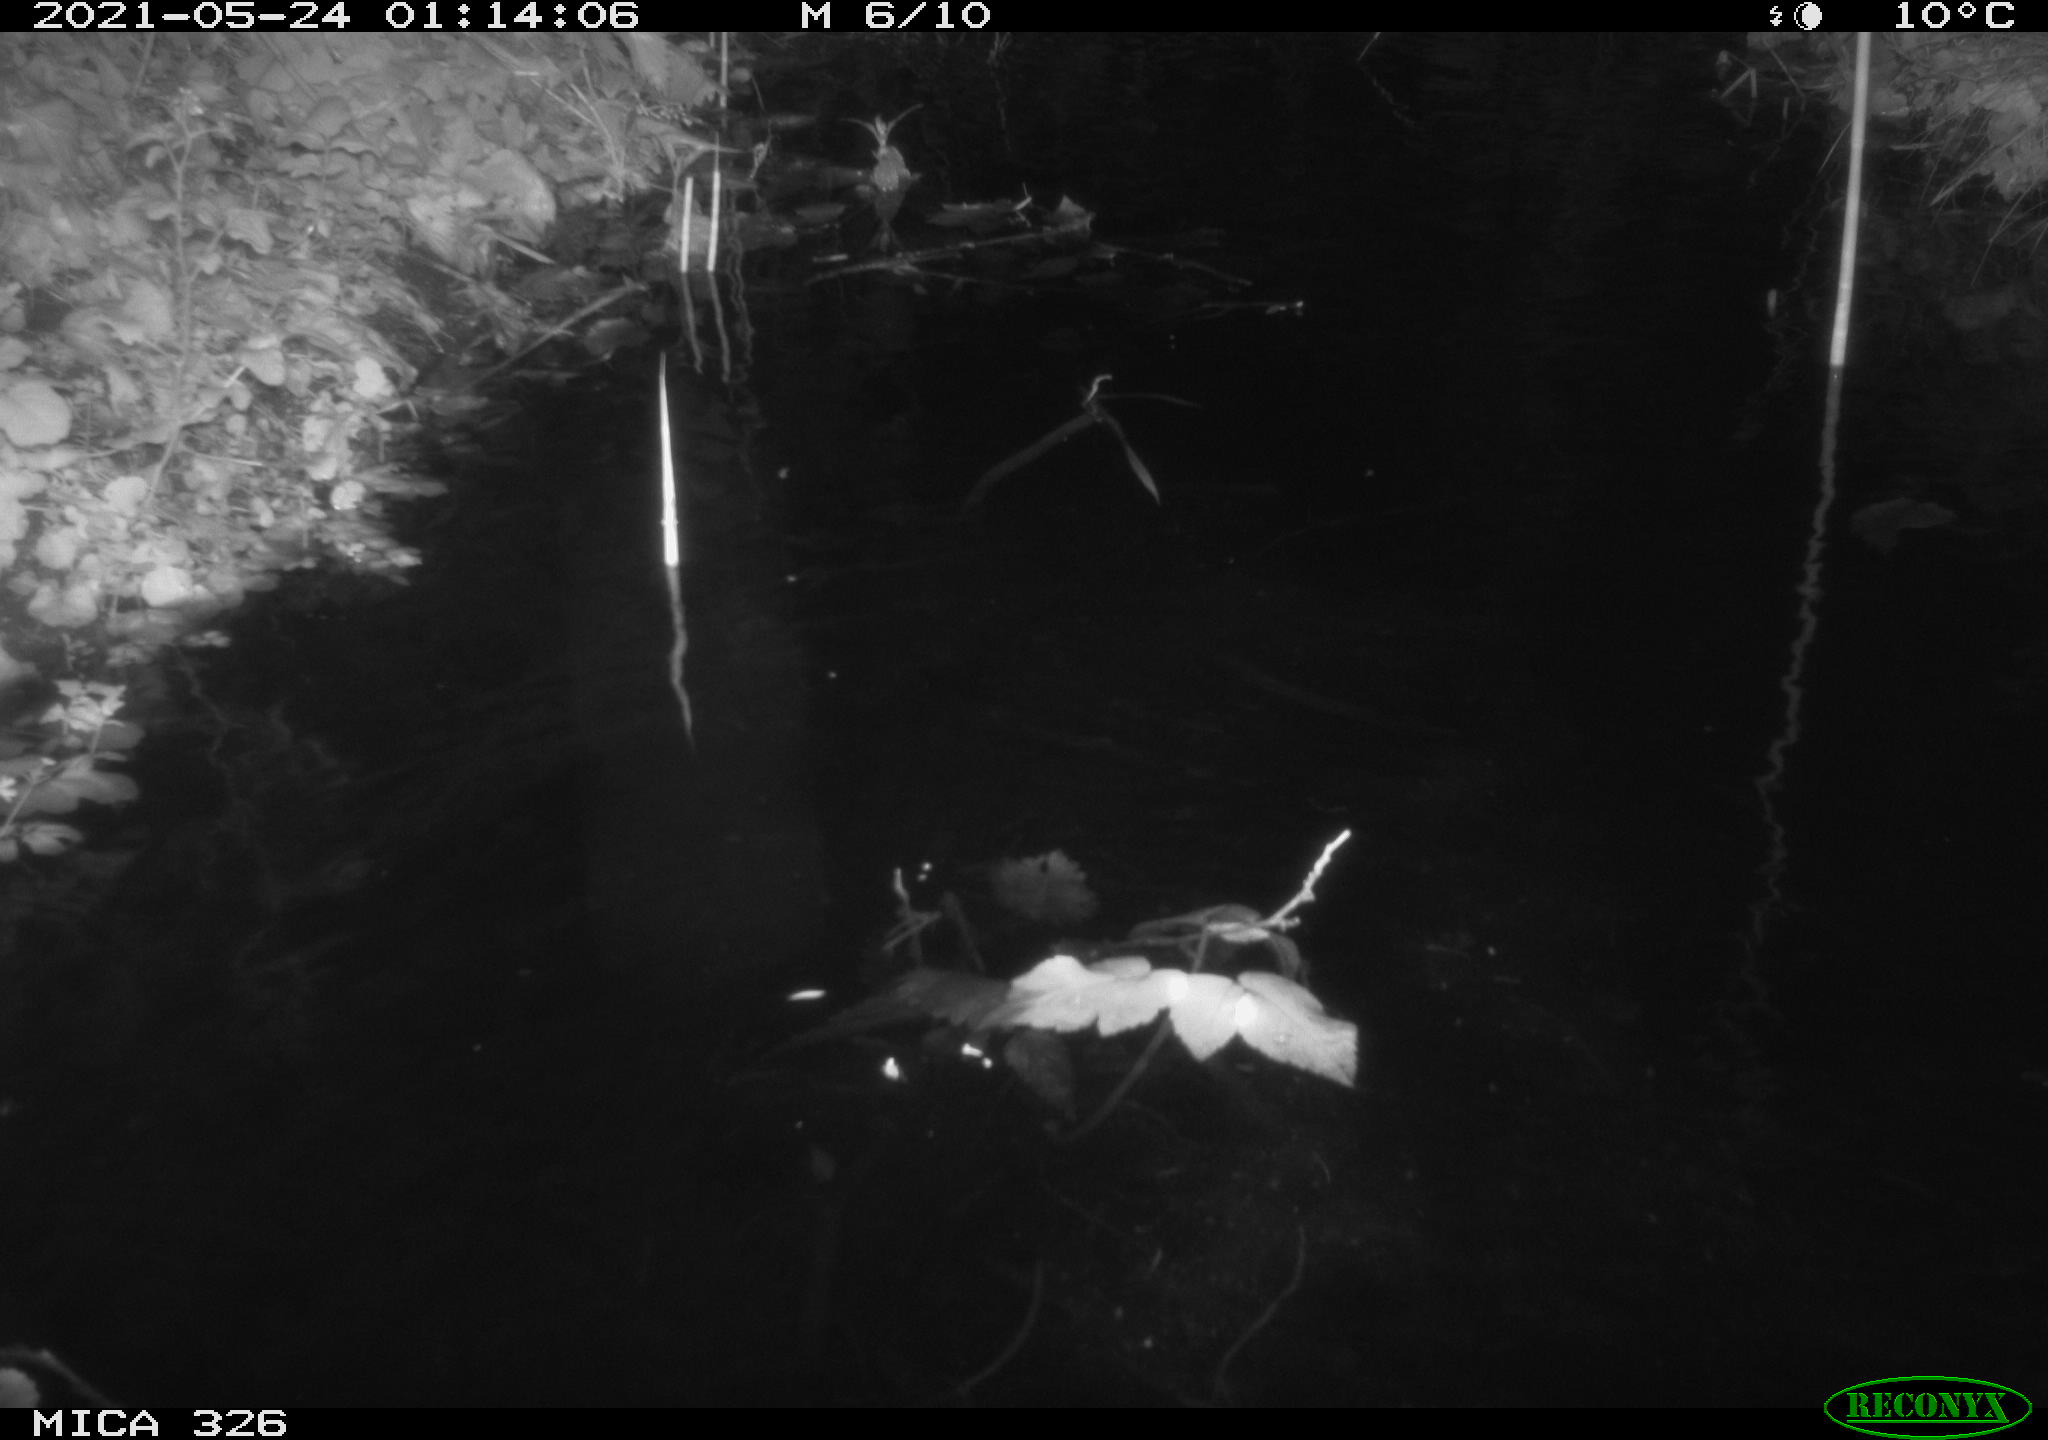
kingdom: Animalia
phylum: Chordata
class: Mammalia
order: Rodentia
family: Cricetidae
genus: Ondatra
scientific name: Ondatra zibethicus
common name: Muskrat
